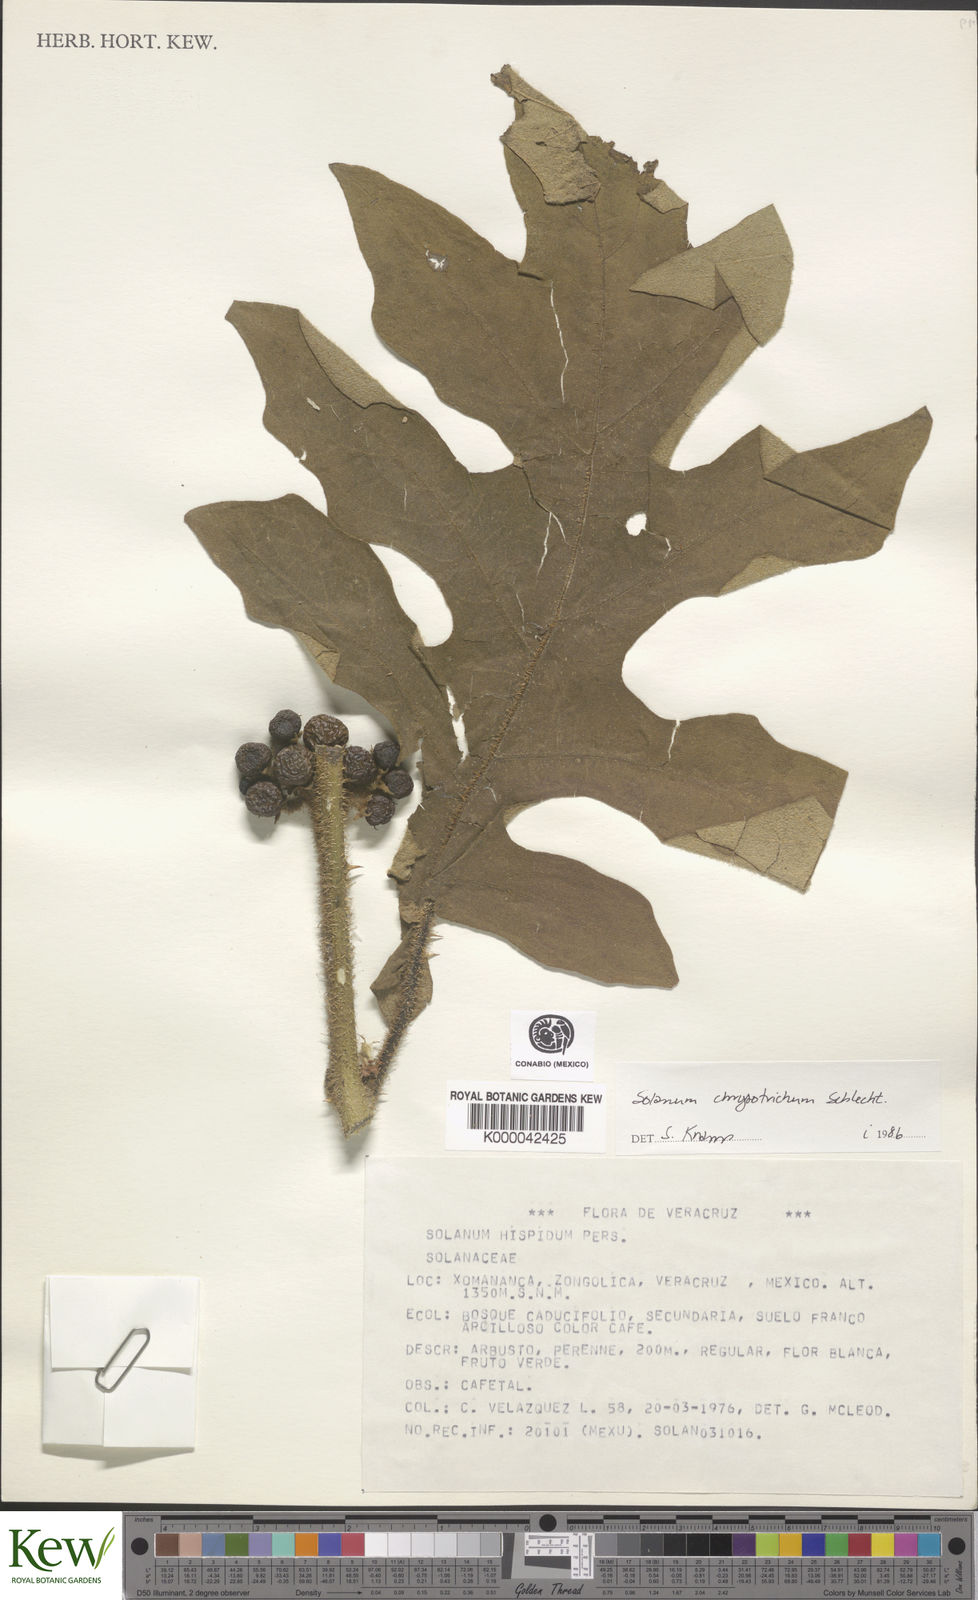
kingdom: Plantae
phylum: Tracheophyta
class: Magnoliopsida
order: Solanales
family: Solanaceae
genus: Solanum
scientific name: Solanum
